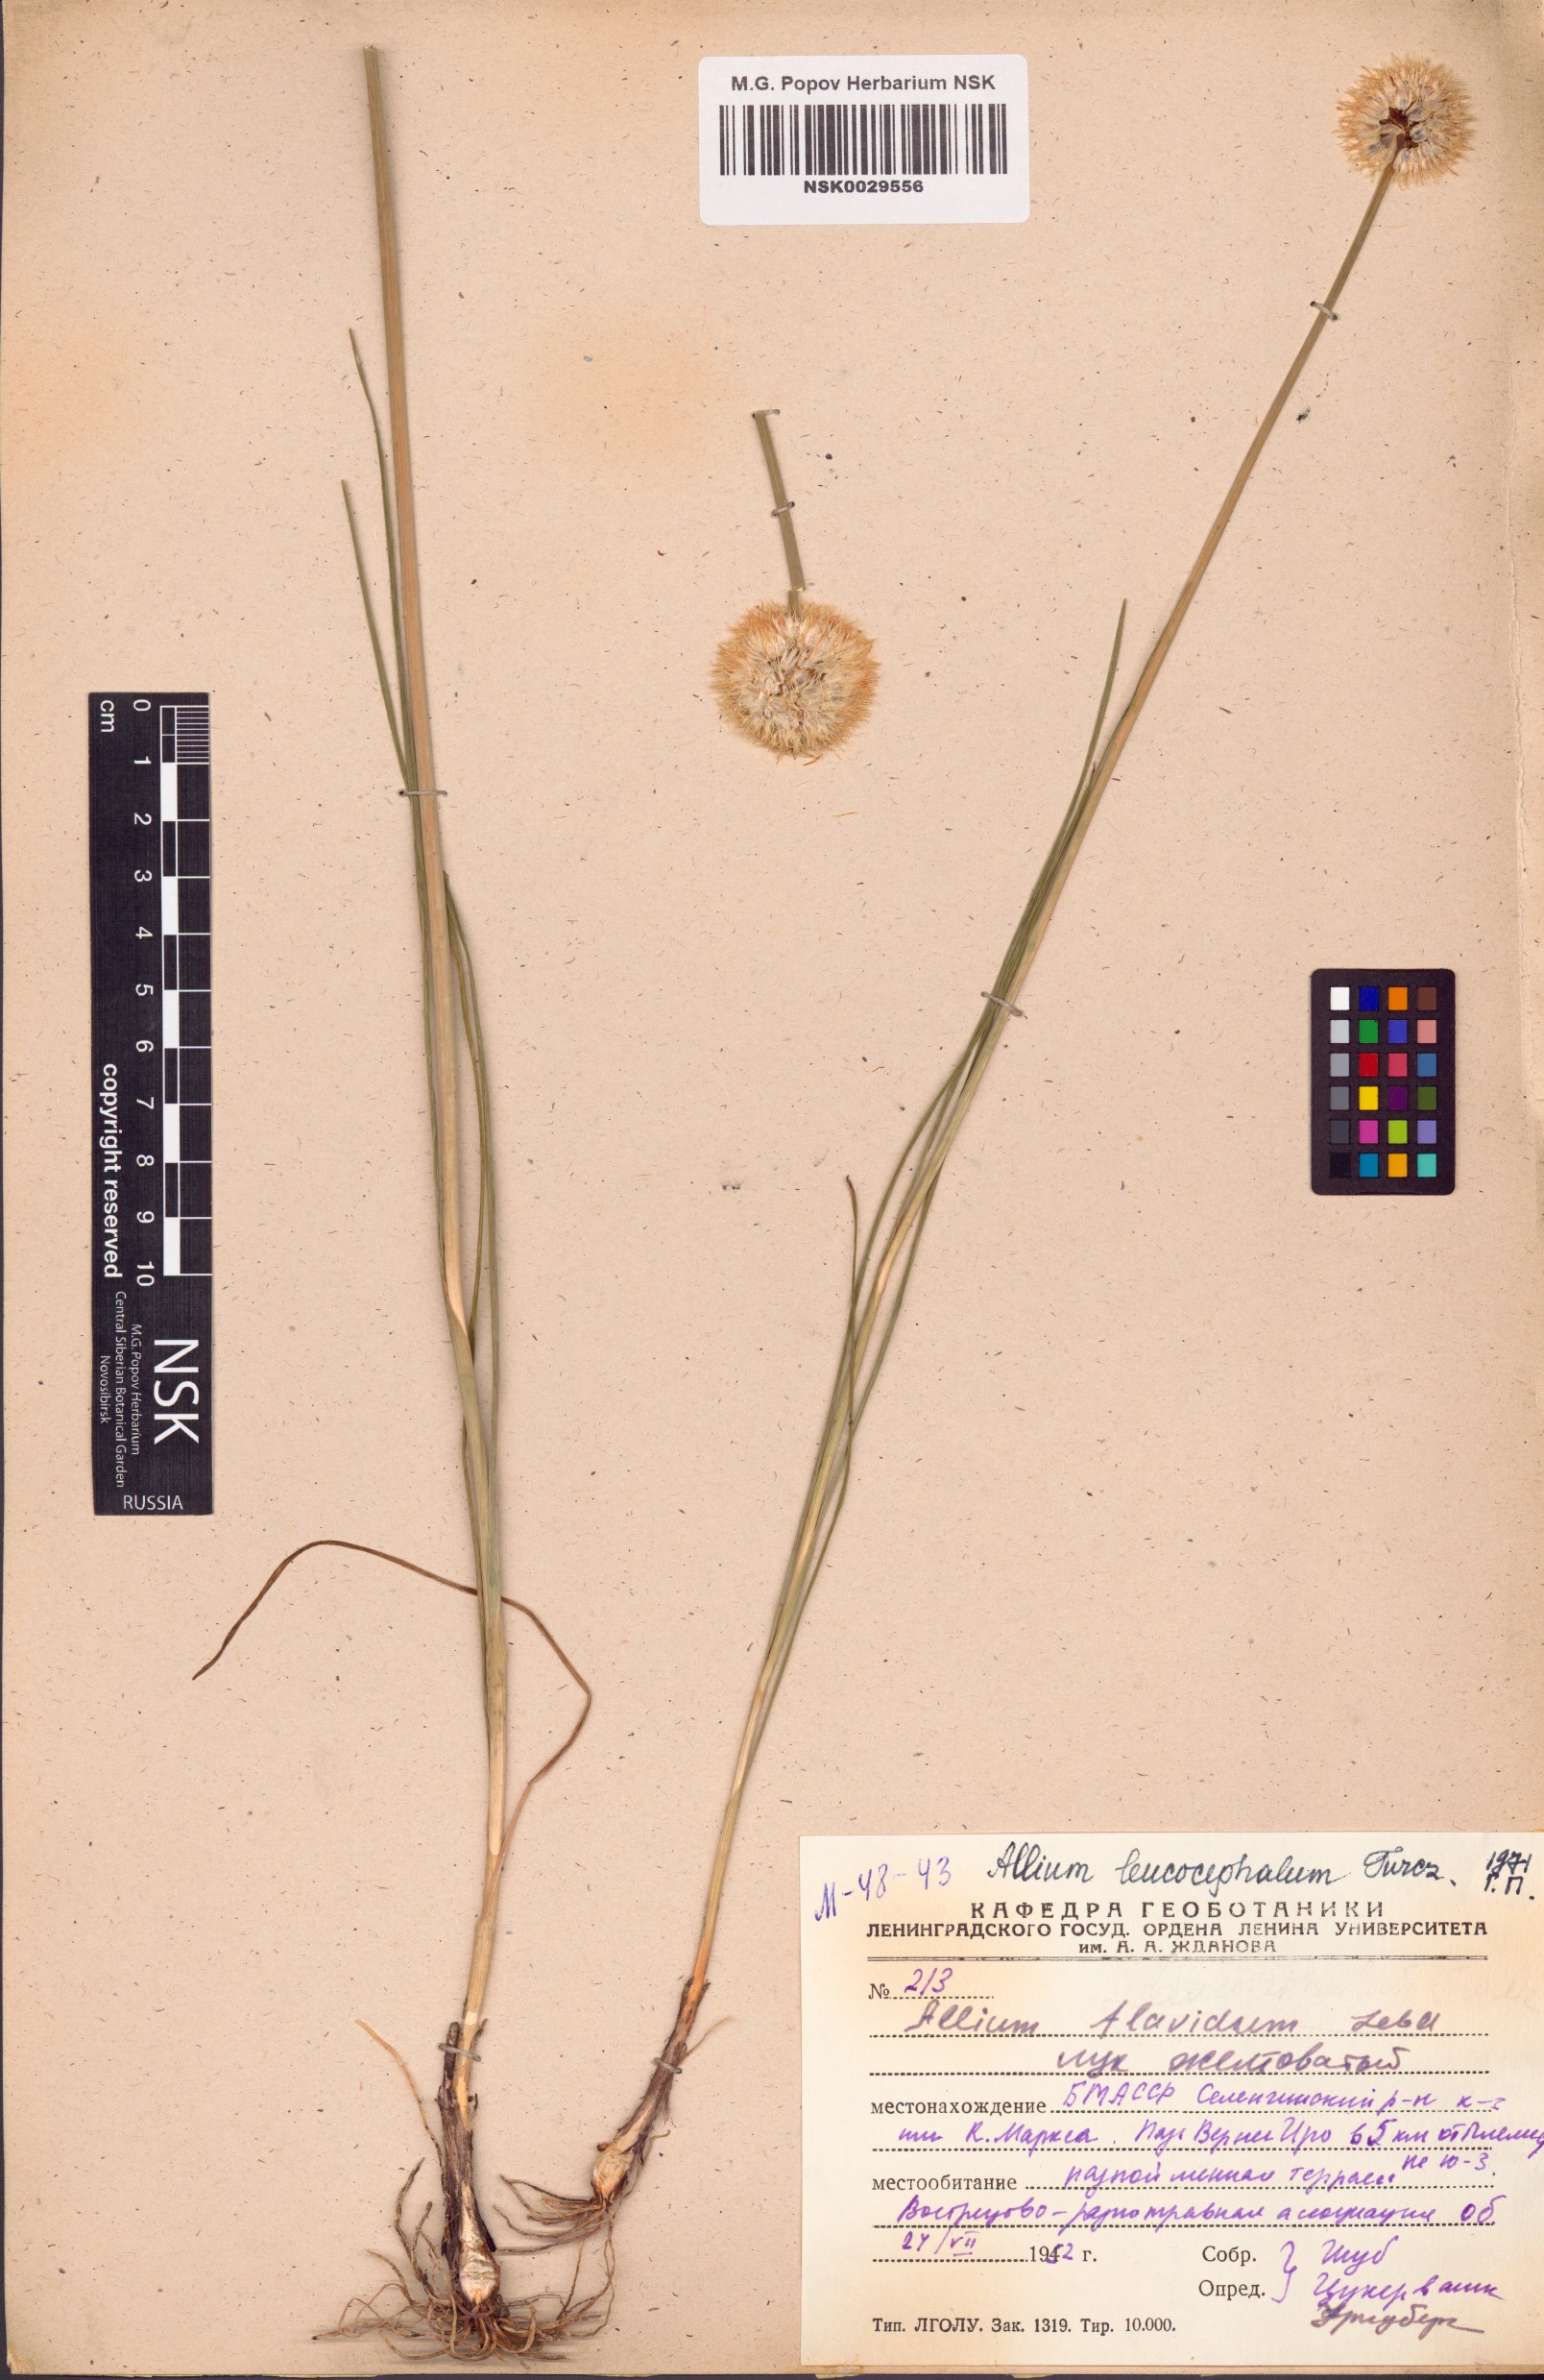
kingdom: Plantae
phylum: Tracheophyta
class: Liliopsida
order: Asparagales
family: Amaryllidaceae
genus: Allium
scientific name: Allium leucocephalum
